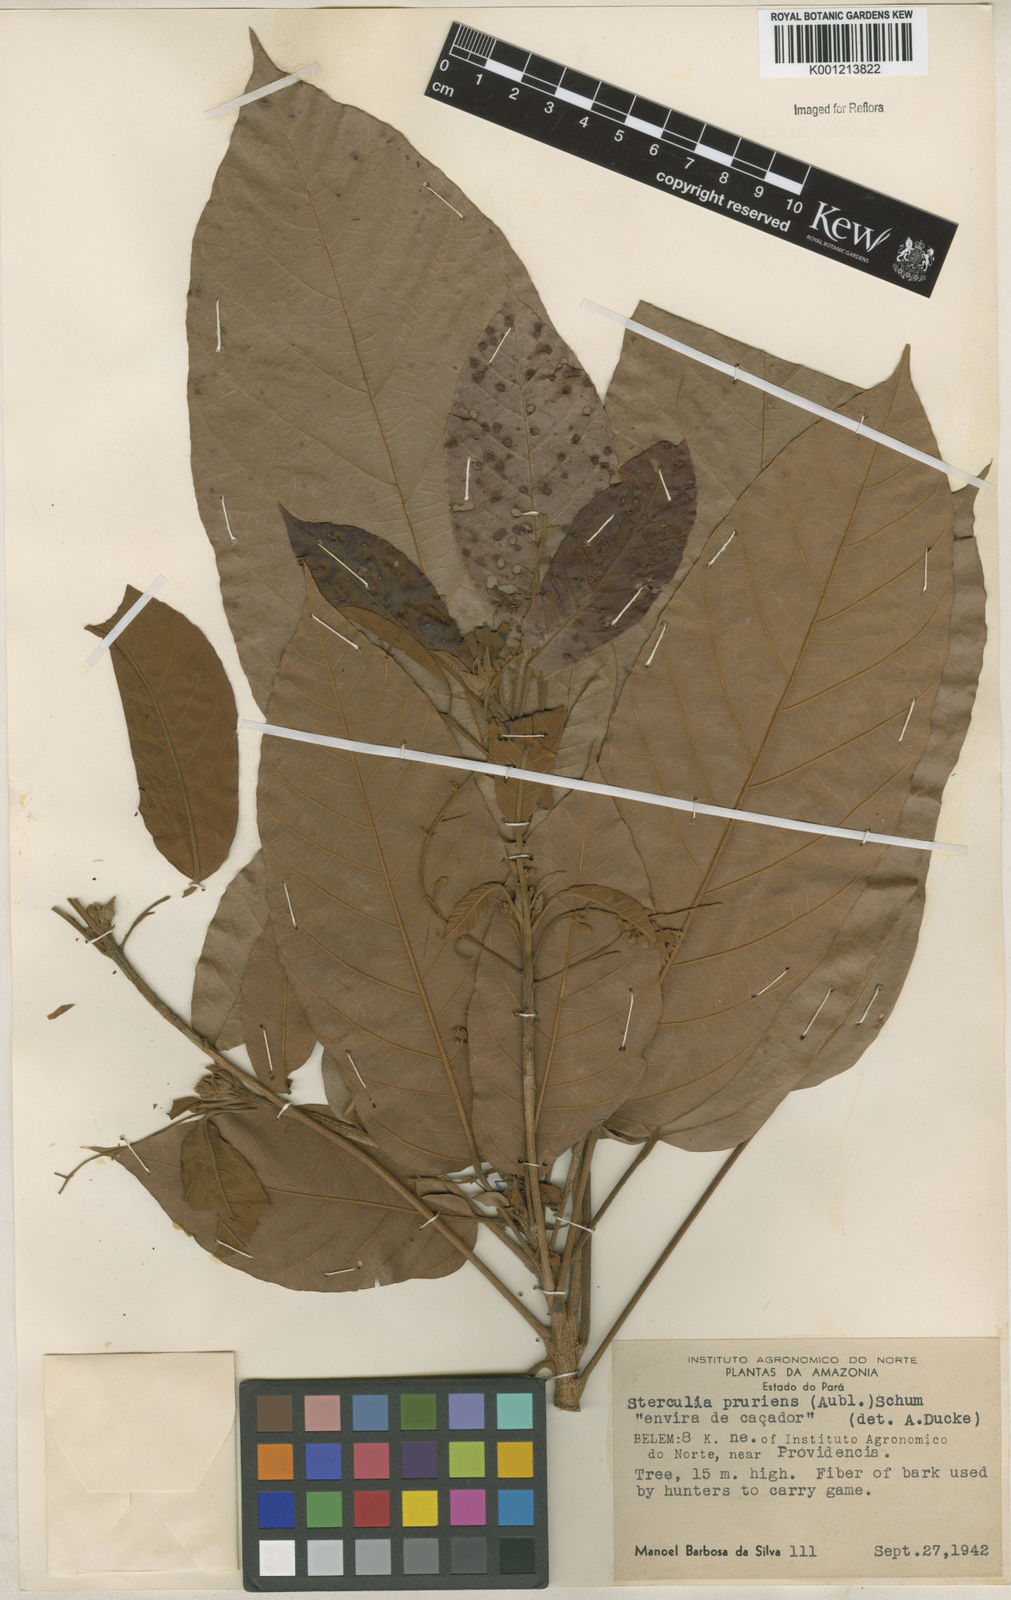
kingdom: Plantae
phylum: Tracheophyta
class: Magnoliopsida
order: Malvales
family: Malvaceae
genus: Sterculia
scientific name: Sterculia pruriens
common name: Grand mahot
